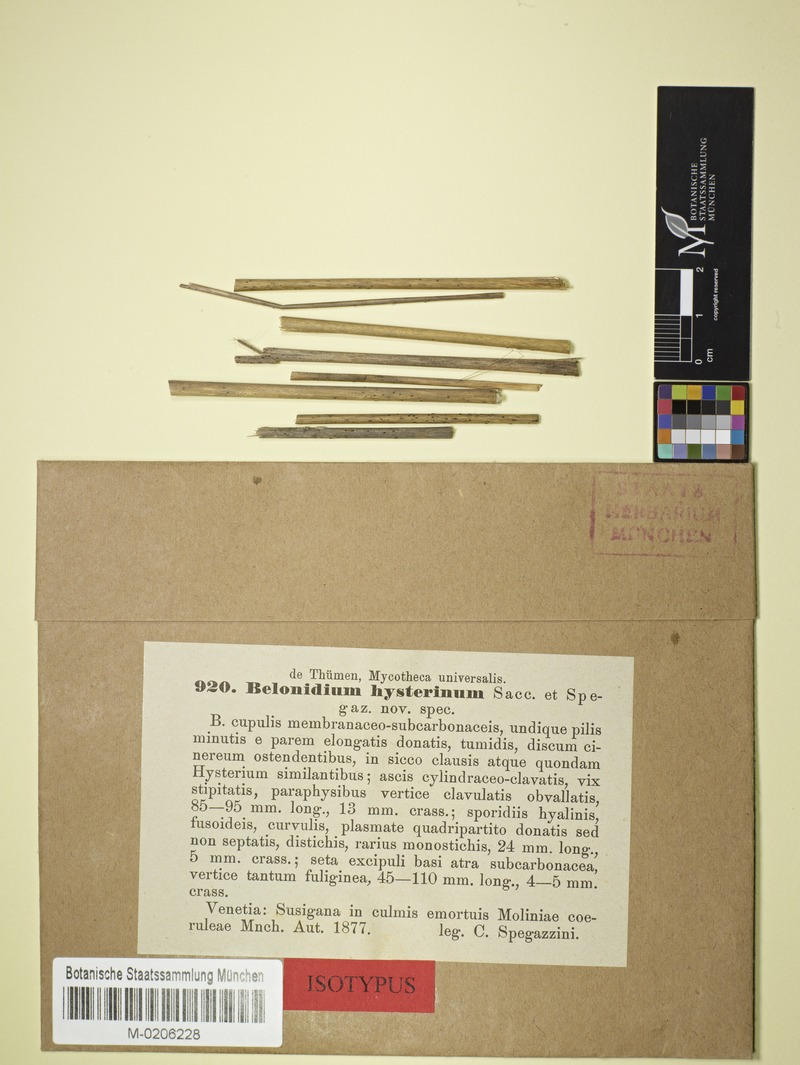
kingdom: Fungi
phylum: Ascomycota
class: Leotiomycetes
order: Helotiales
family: Lachnaceae
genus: Belonidium
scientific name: Belonidium
